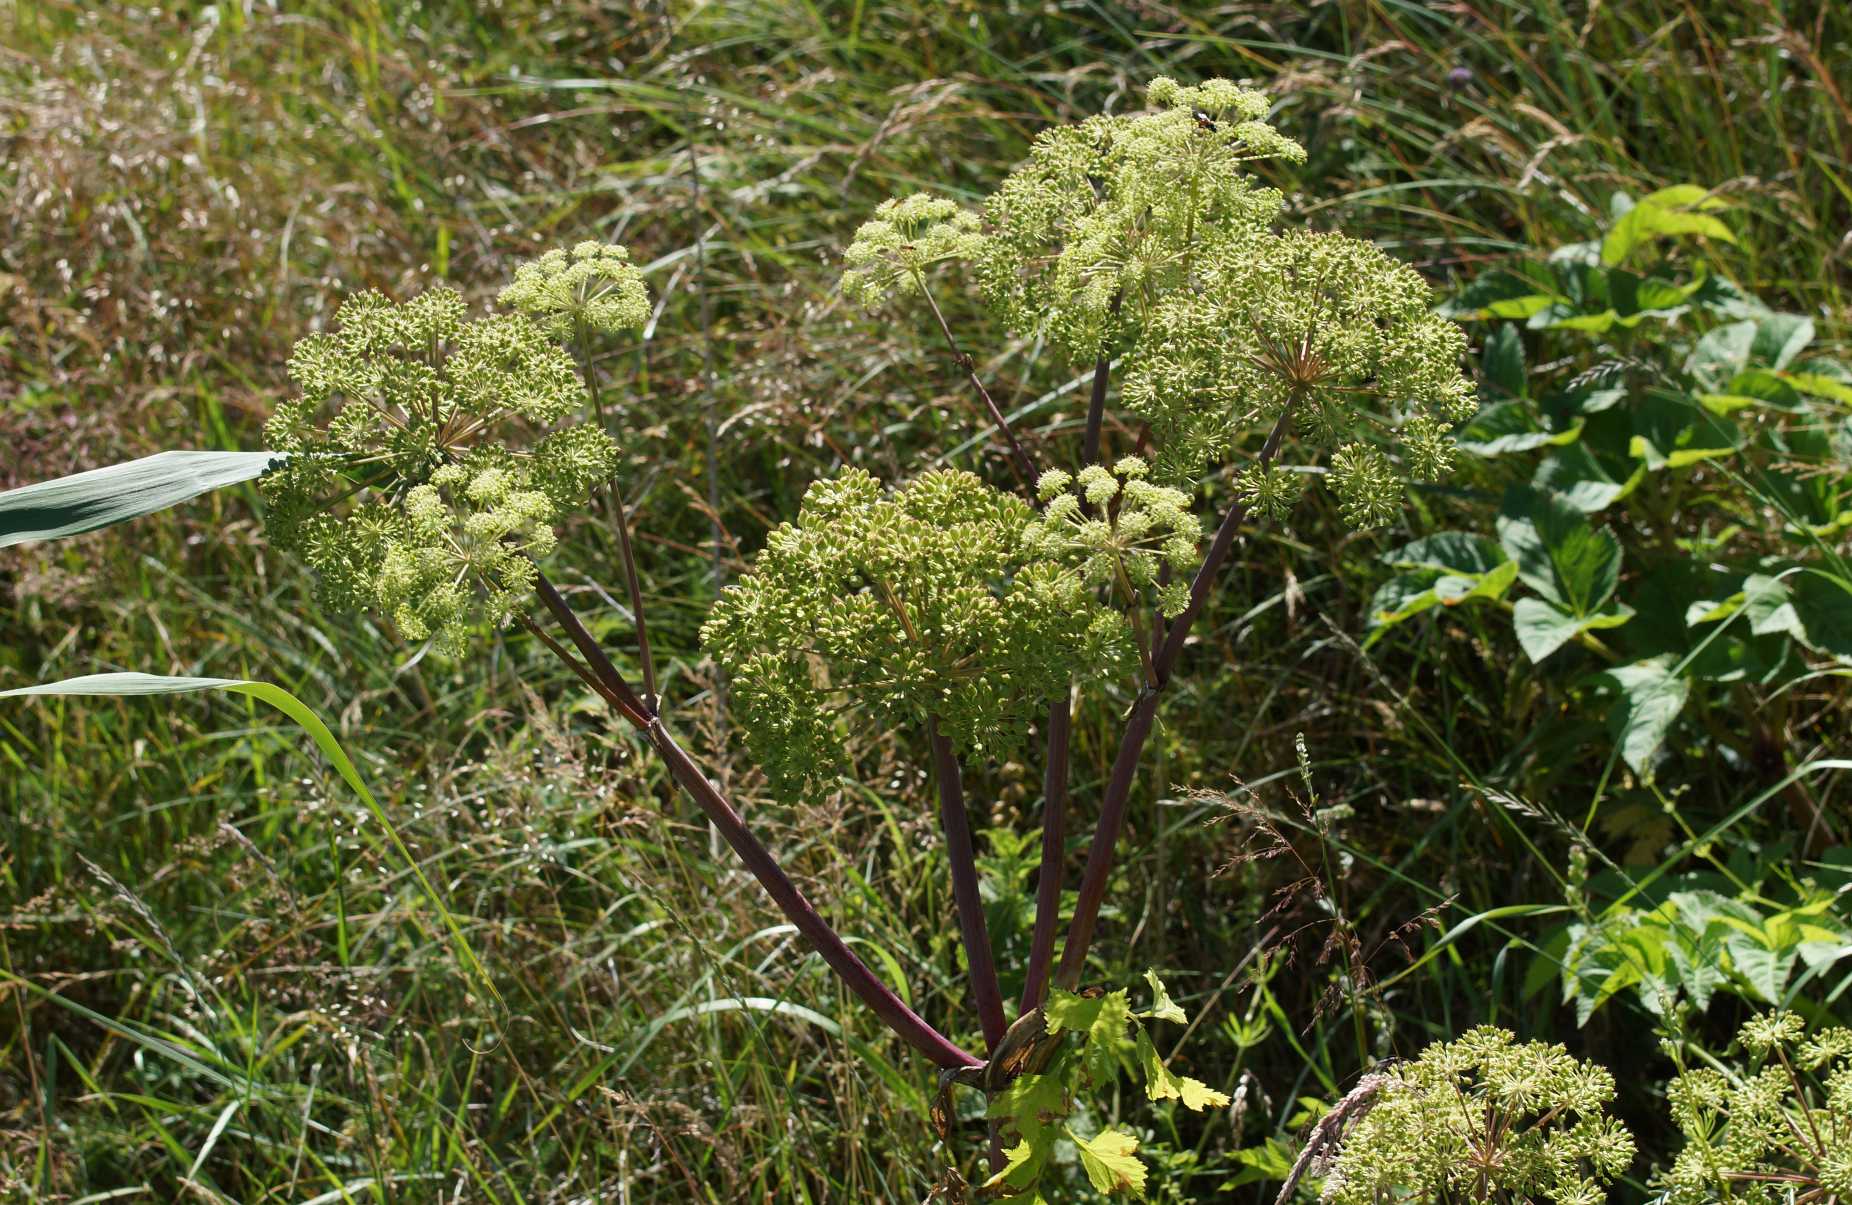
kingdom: Plantae
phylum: Tracheophyta
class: Magnoliopsida
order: Apiales
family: Apiaceae
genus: Angelica
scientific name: Angelica archangelica
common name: Kvan
